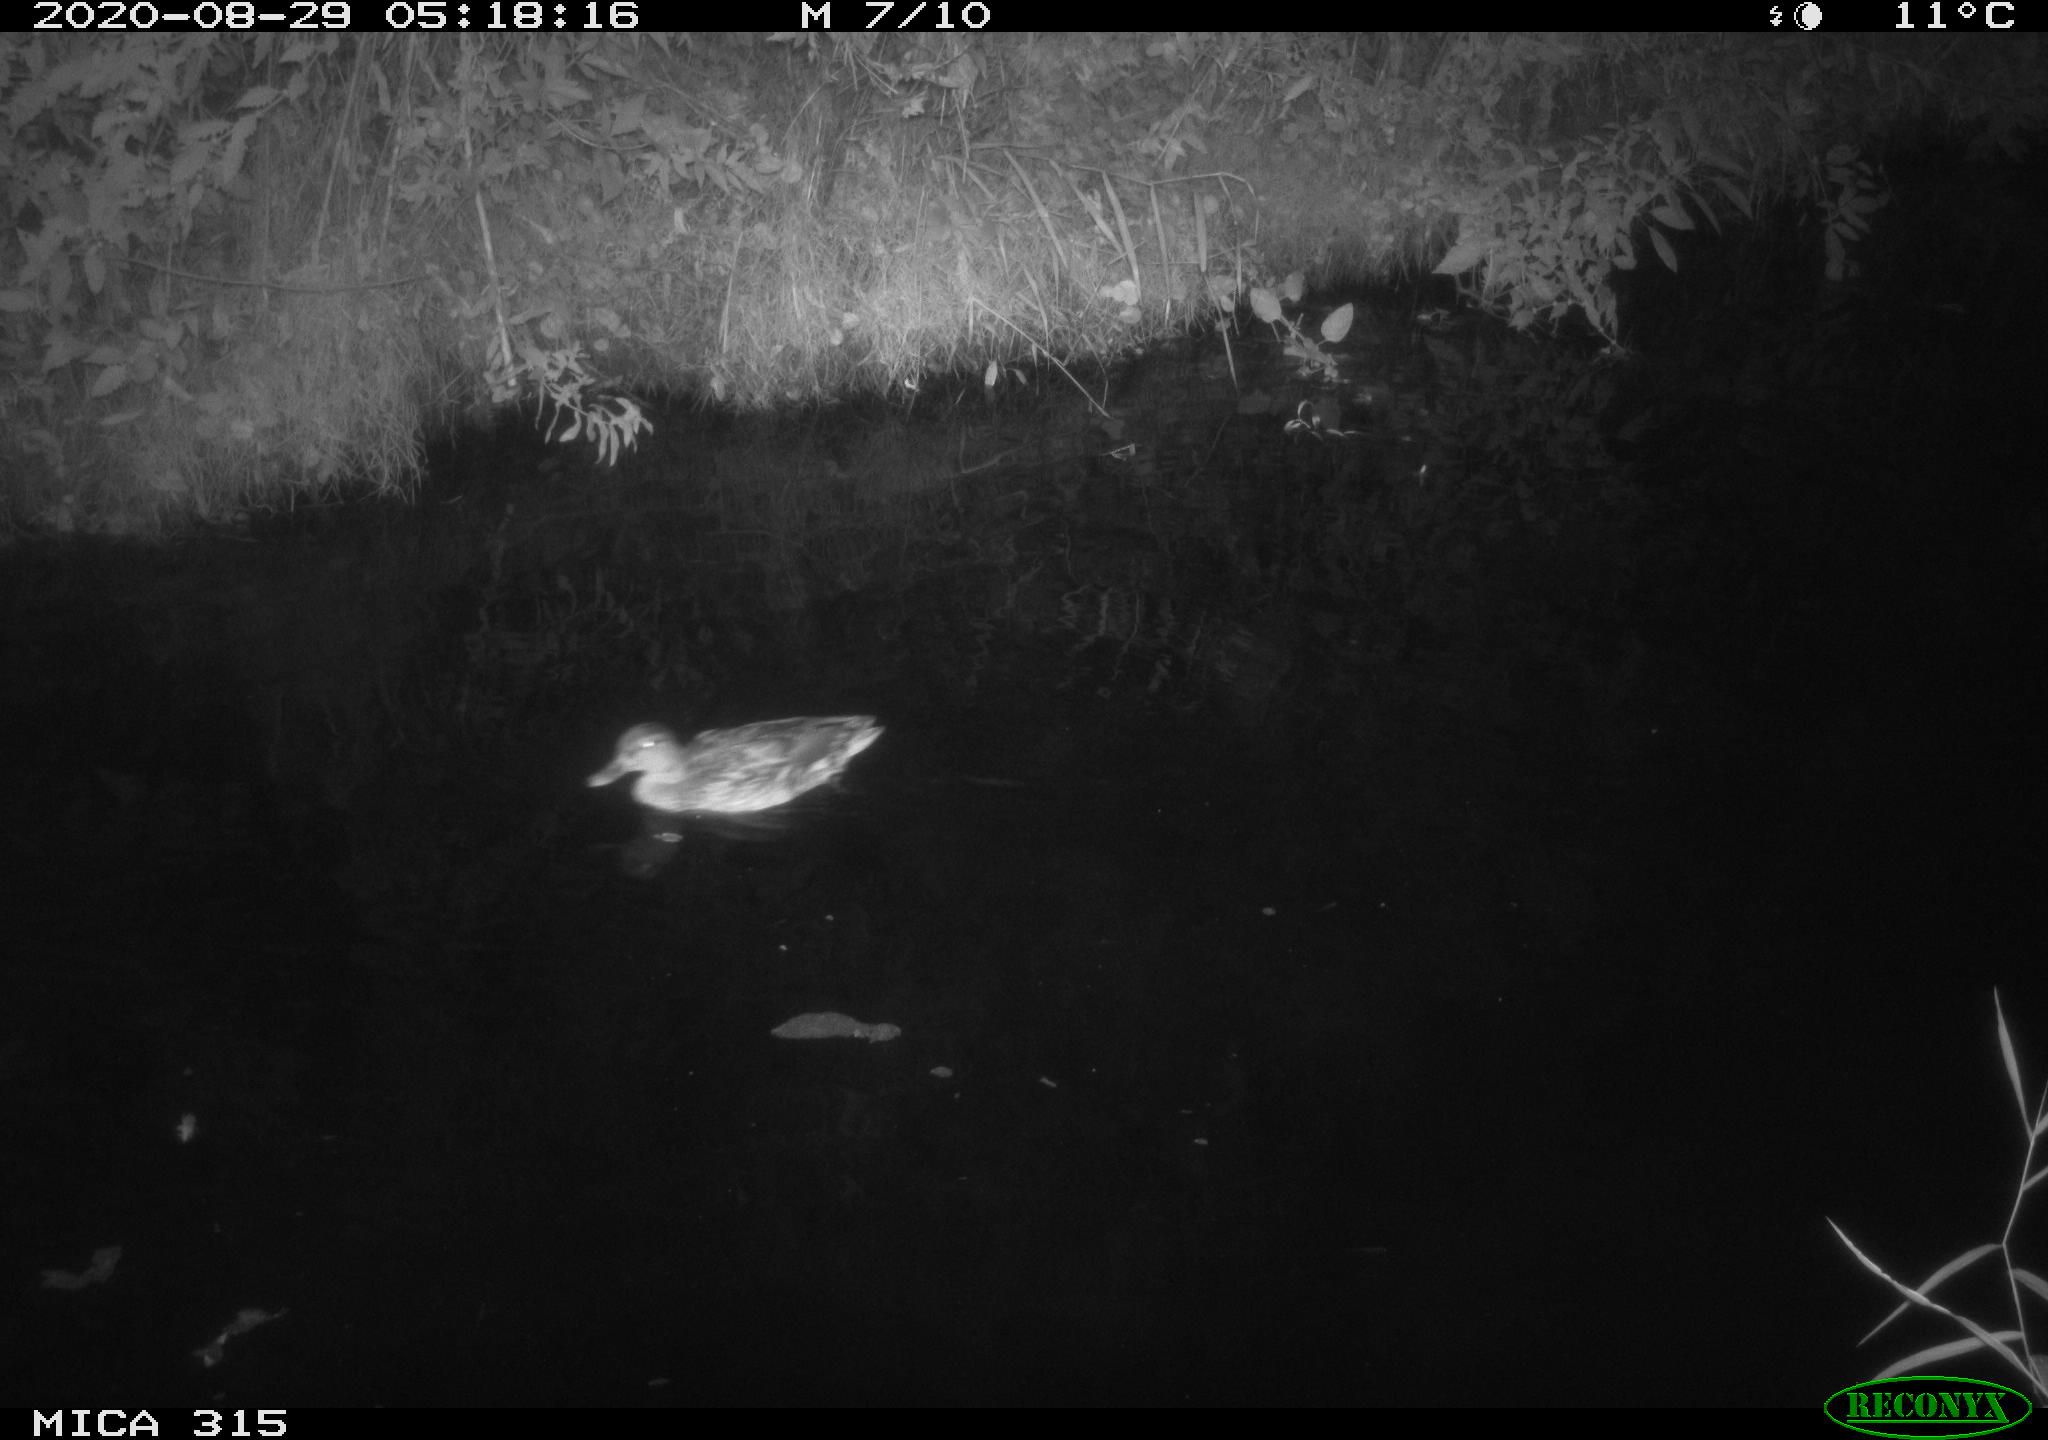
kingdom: Animalia
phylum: Chordata
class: Aves
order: Anseriformes
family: Anatidae
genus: Anas
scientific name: Anas platyrhynchos
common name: Mallard
